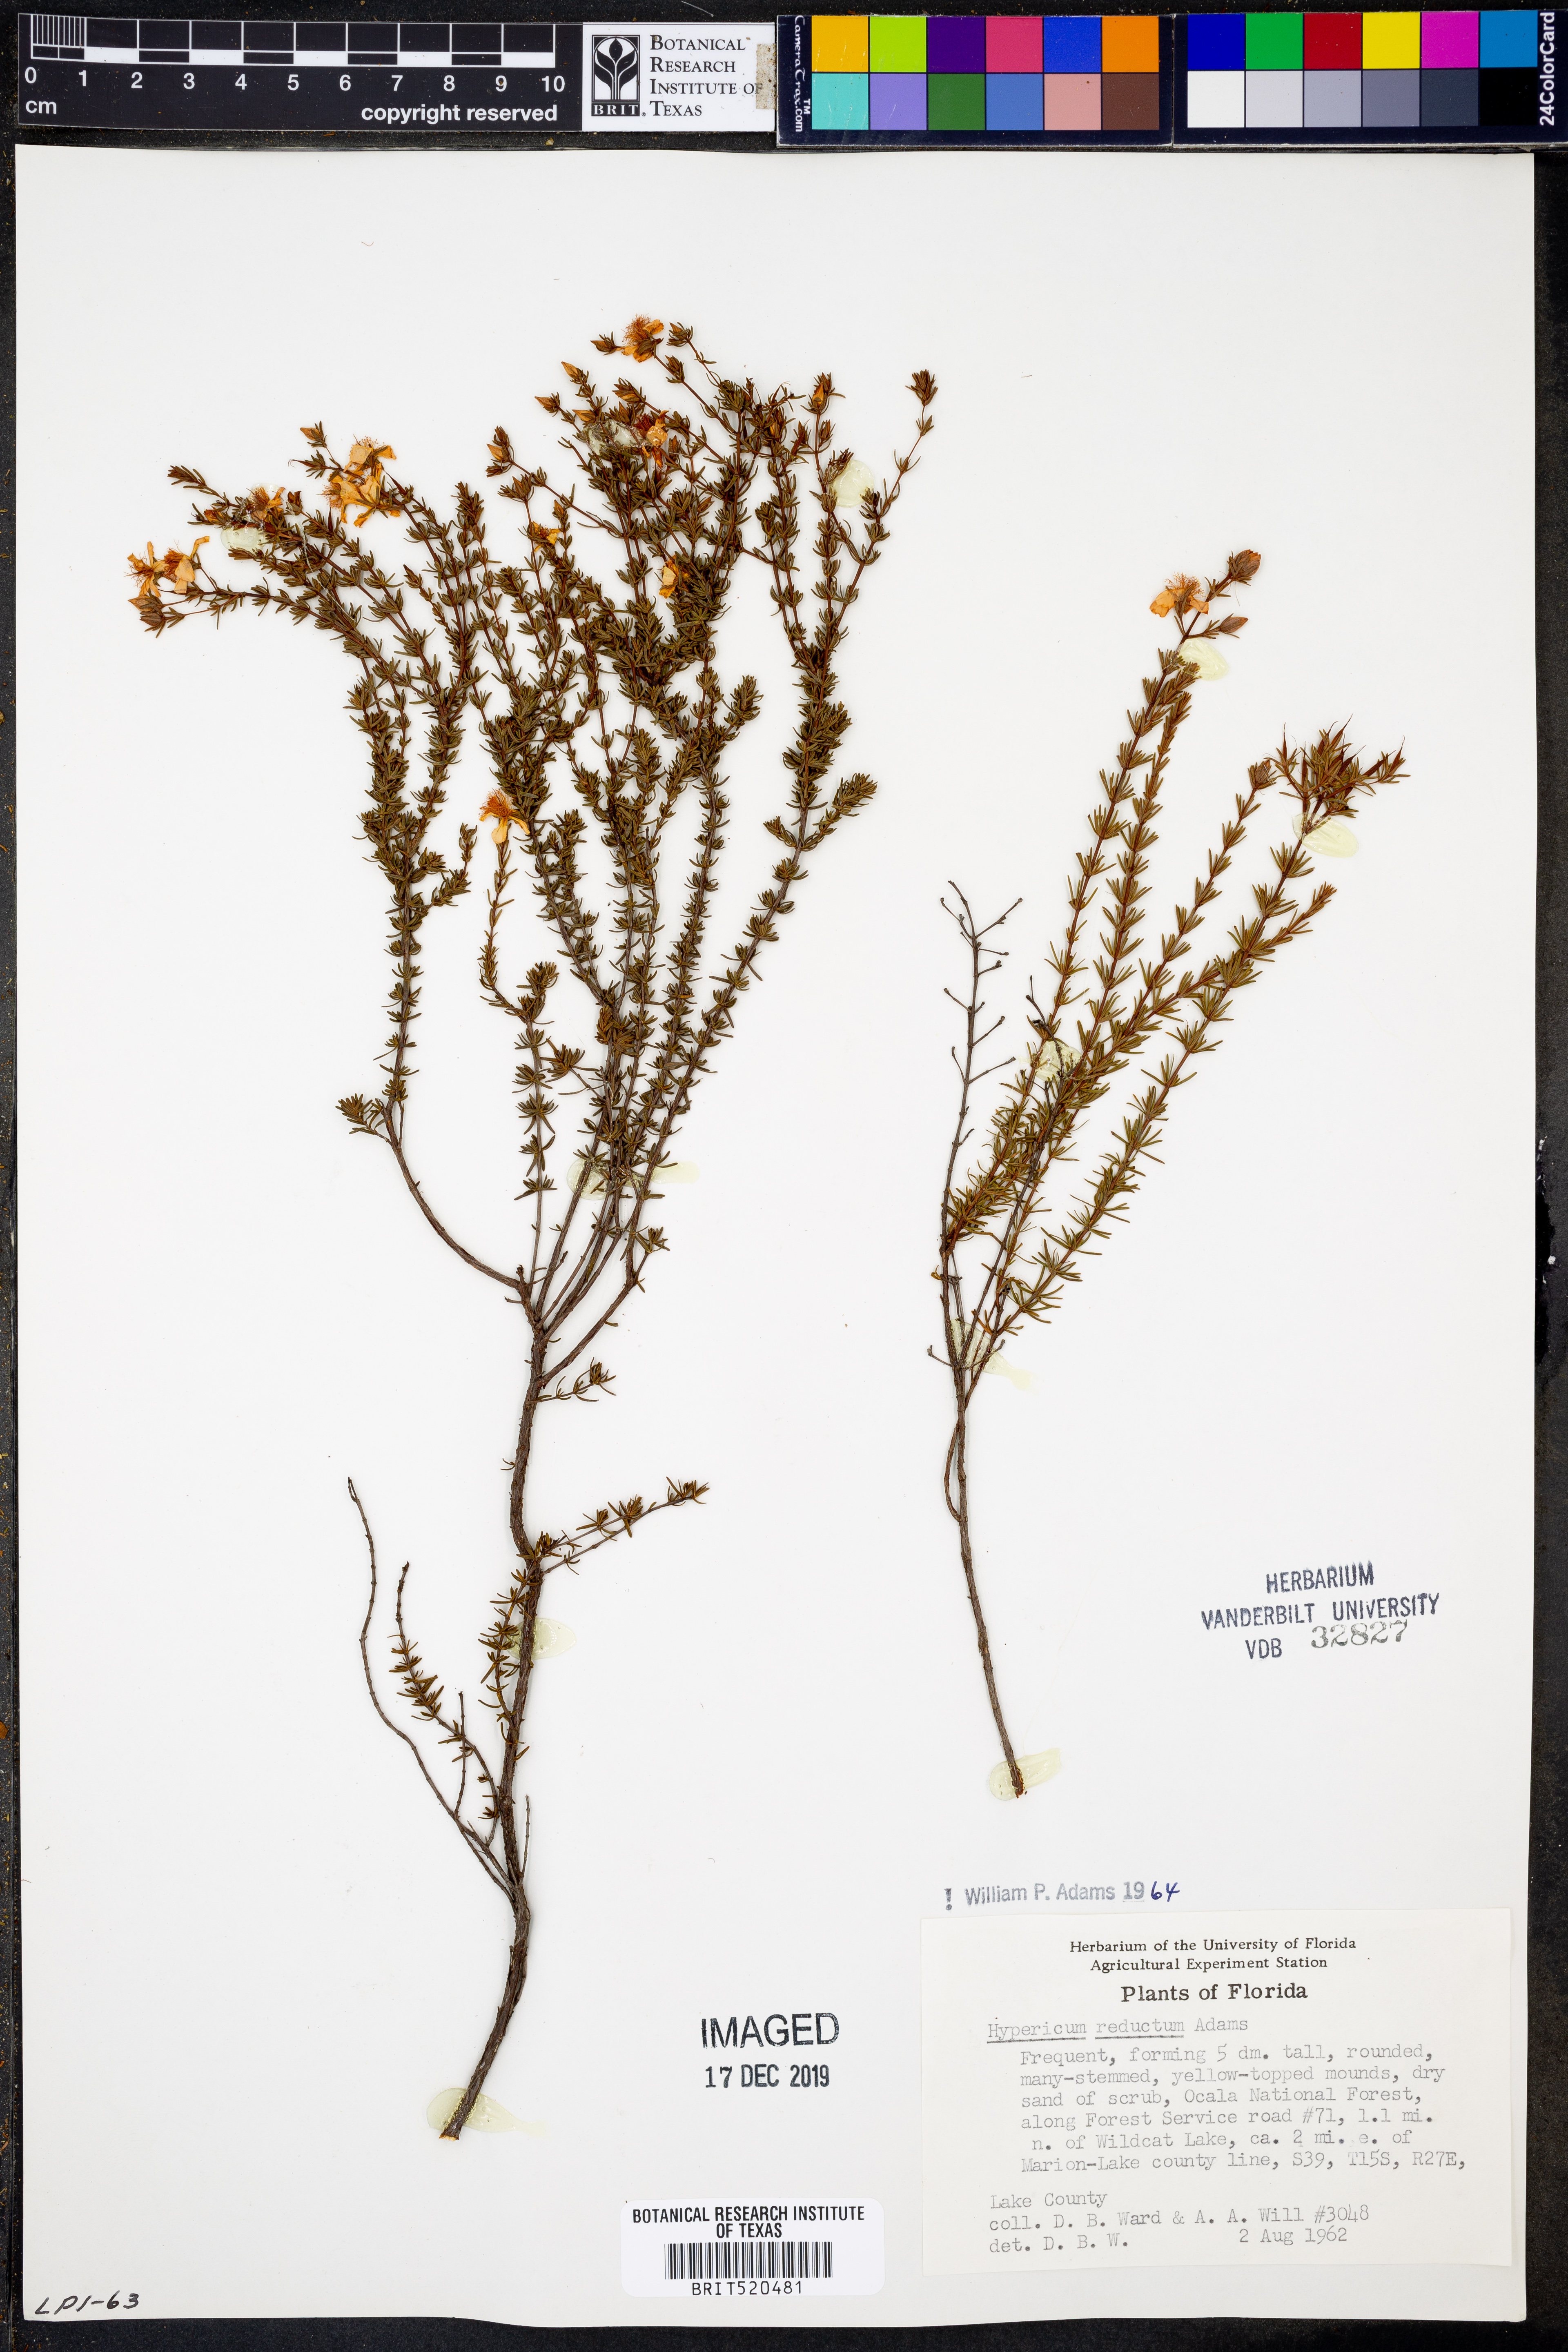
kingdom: Plantae
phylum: Tracheophyta
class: Magnoliopsida
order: Malpighiales
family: Hypericaceae
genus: Hypericum
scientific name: Hypericum tenuifolium
